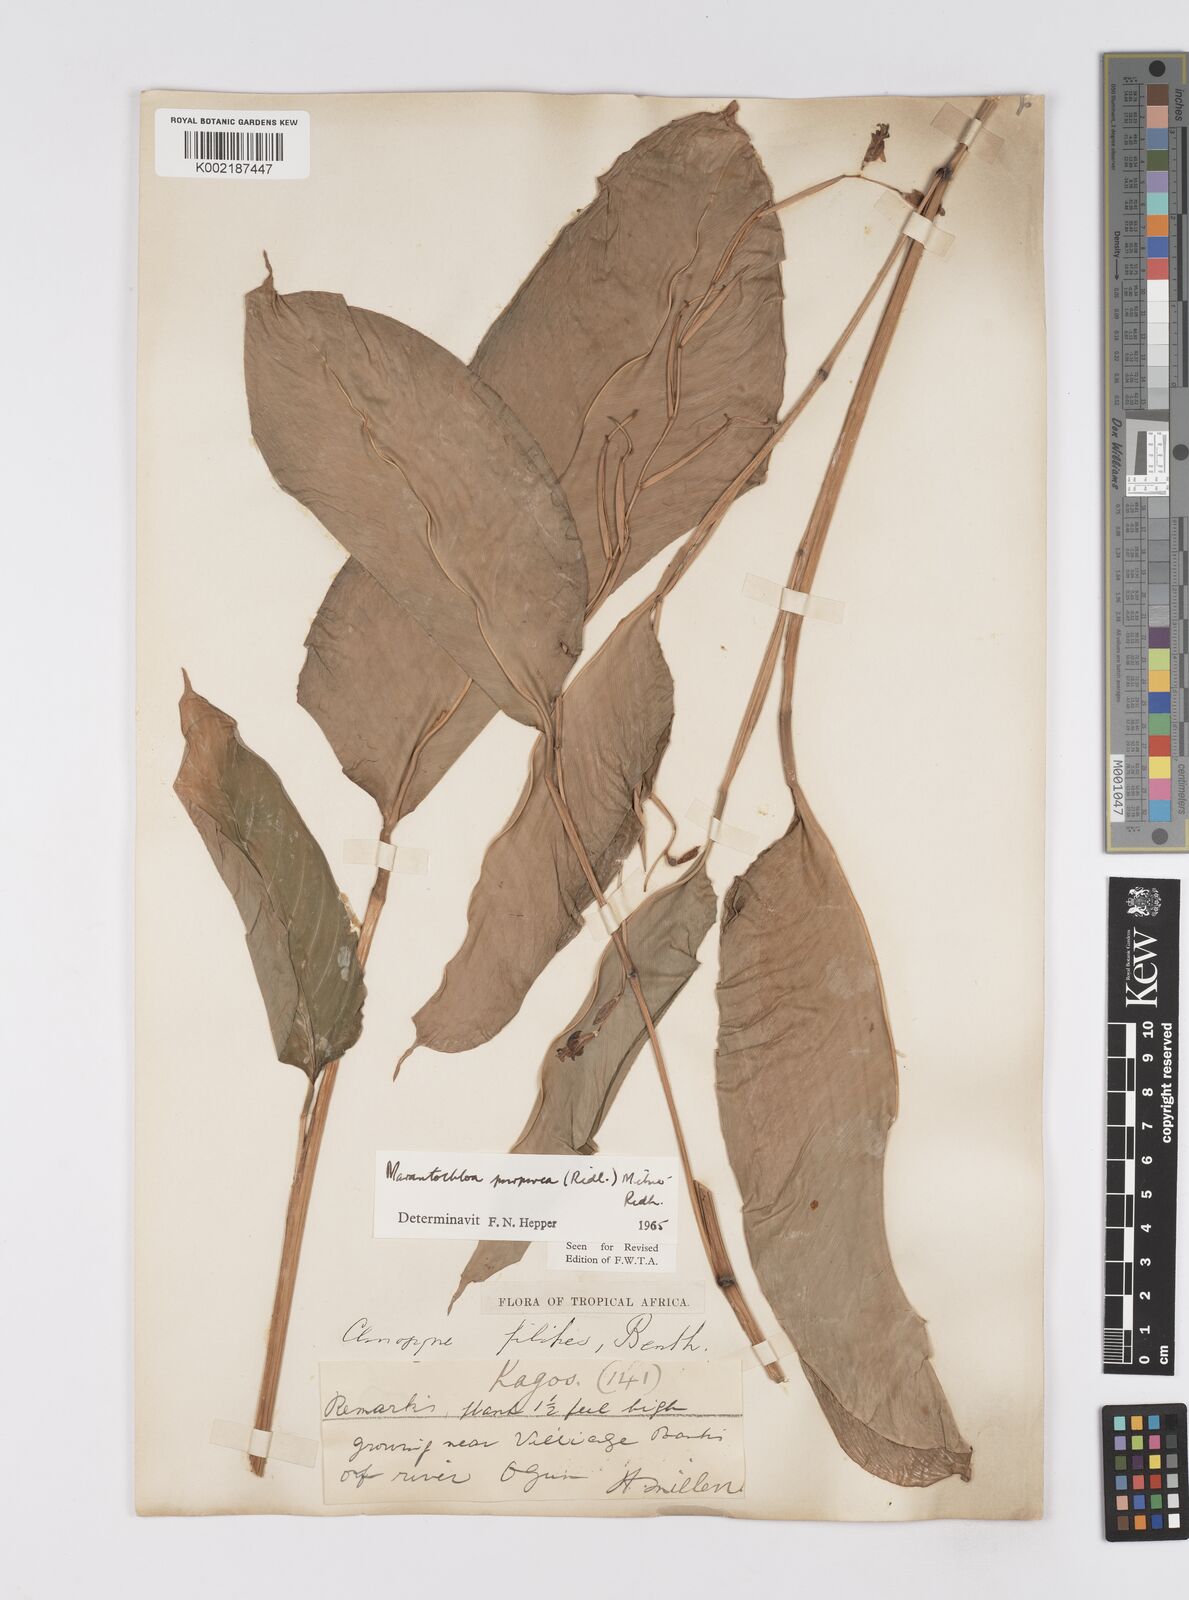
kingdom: Plantae
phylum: Tracheophyta
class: Liliopsida
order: Zingiberales
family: Marantaceae
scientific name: Marantaceae
